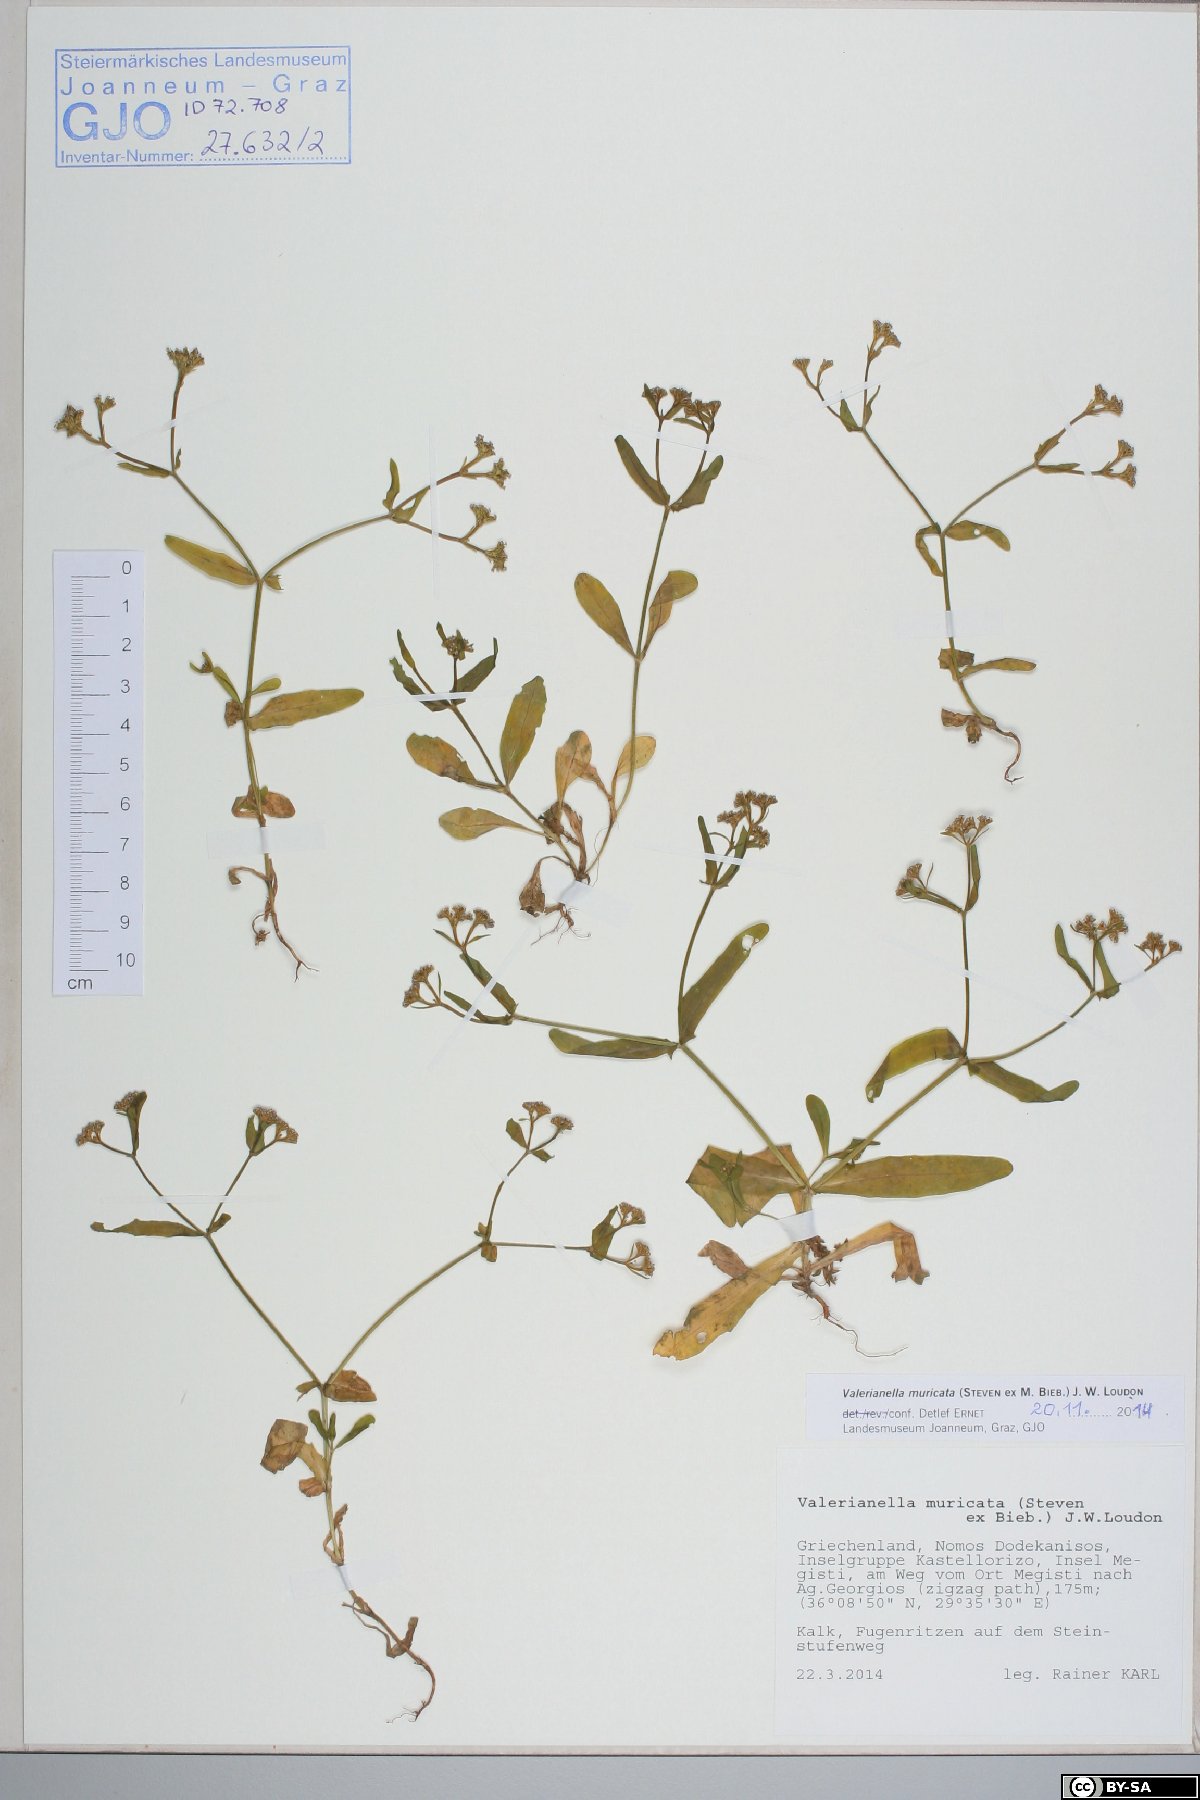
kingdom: Plantae
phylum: Tracheophyta
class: Magnoliopsida
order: Dipsacales
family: Caprifoliaceae
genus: Valerianella
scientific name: Valerianella eriocarpa
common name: Hairy-fruited cornsalad
